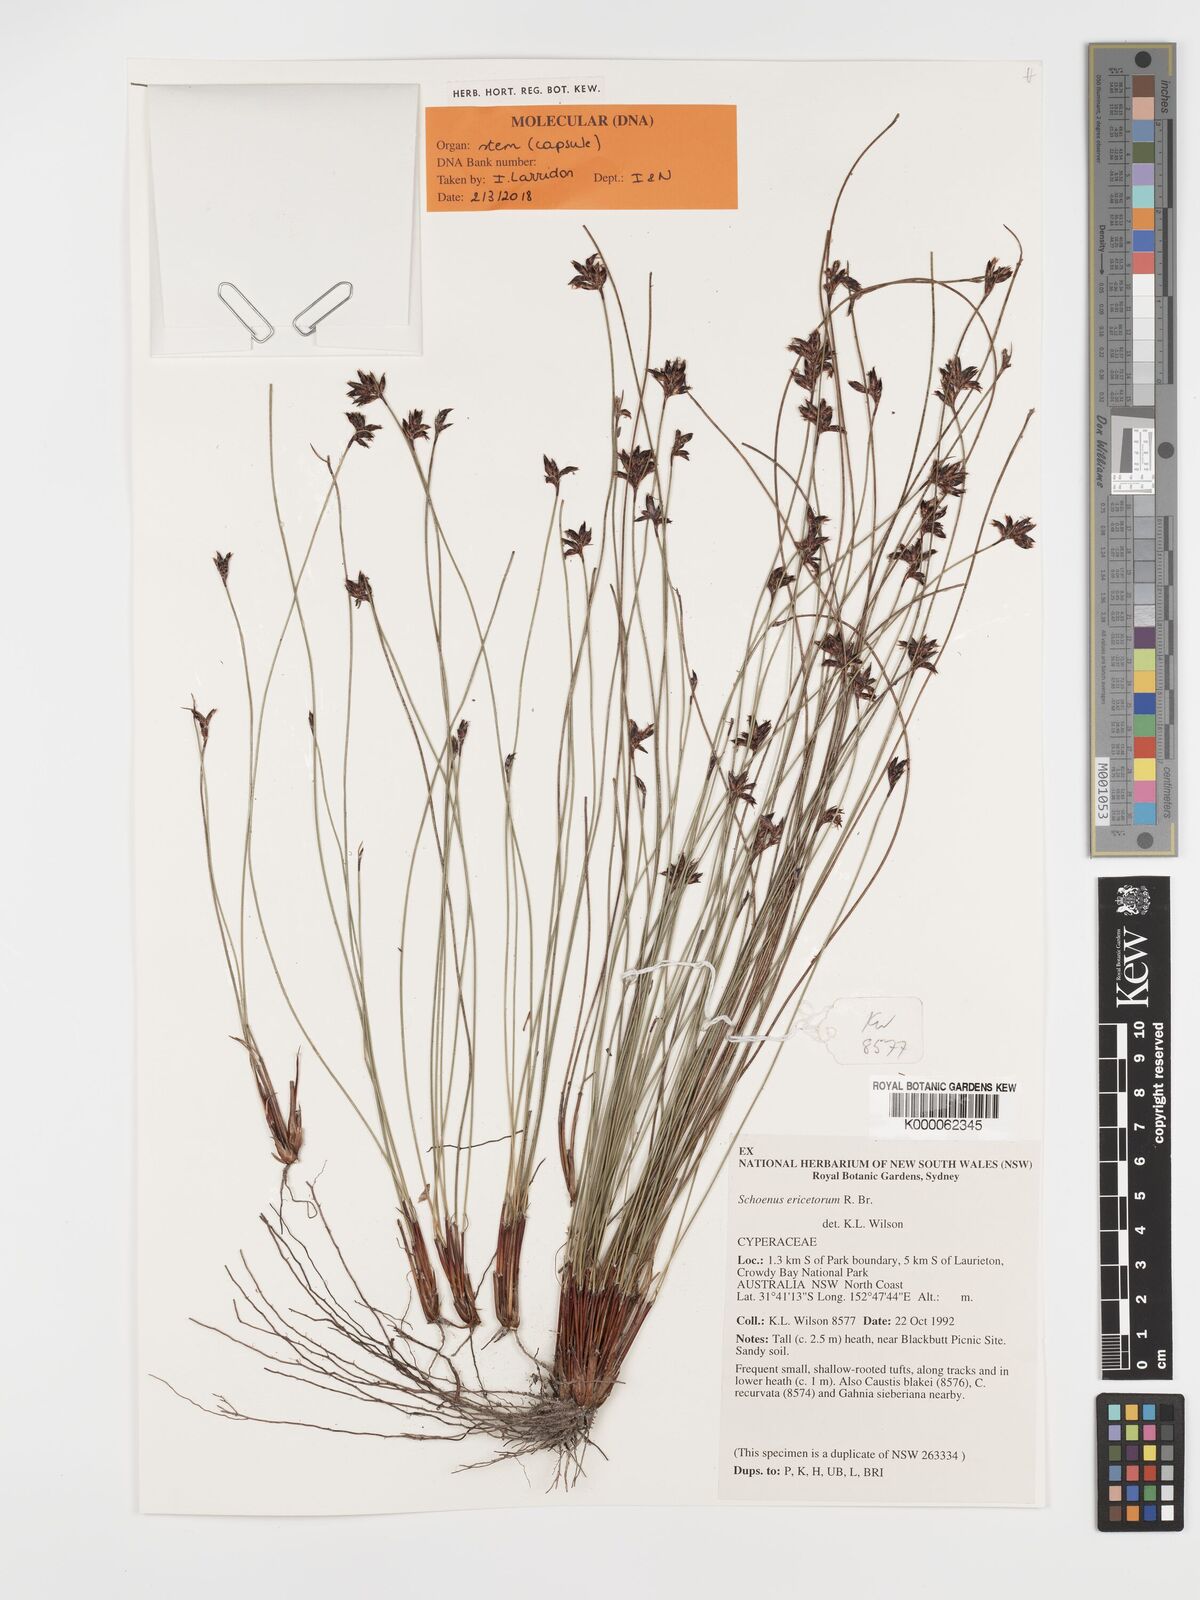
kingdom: Plantae
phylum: Tracheophyta
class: Liliopsida
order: Poales
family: Cyperaceae
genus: Schoenus
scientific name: Schoenus ericetorum
